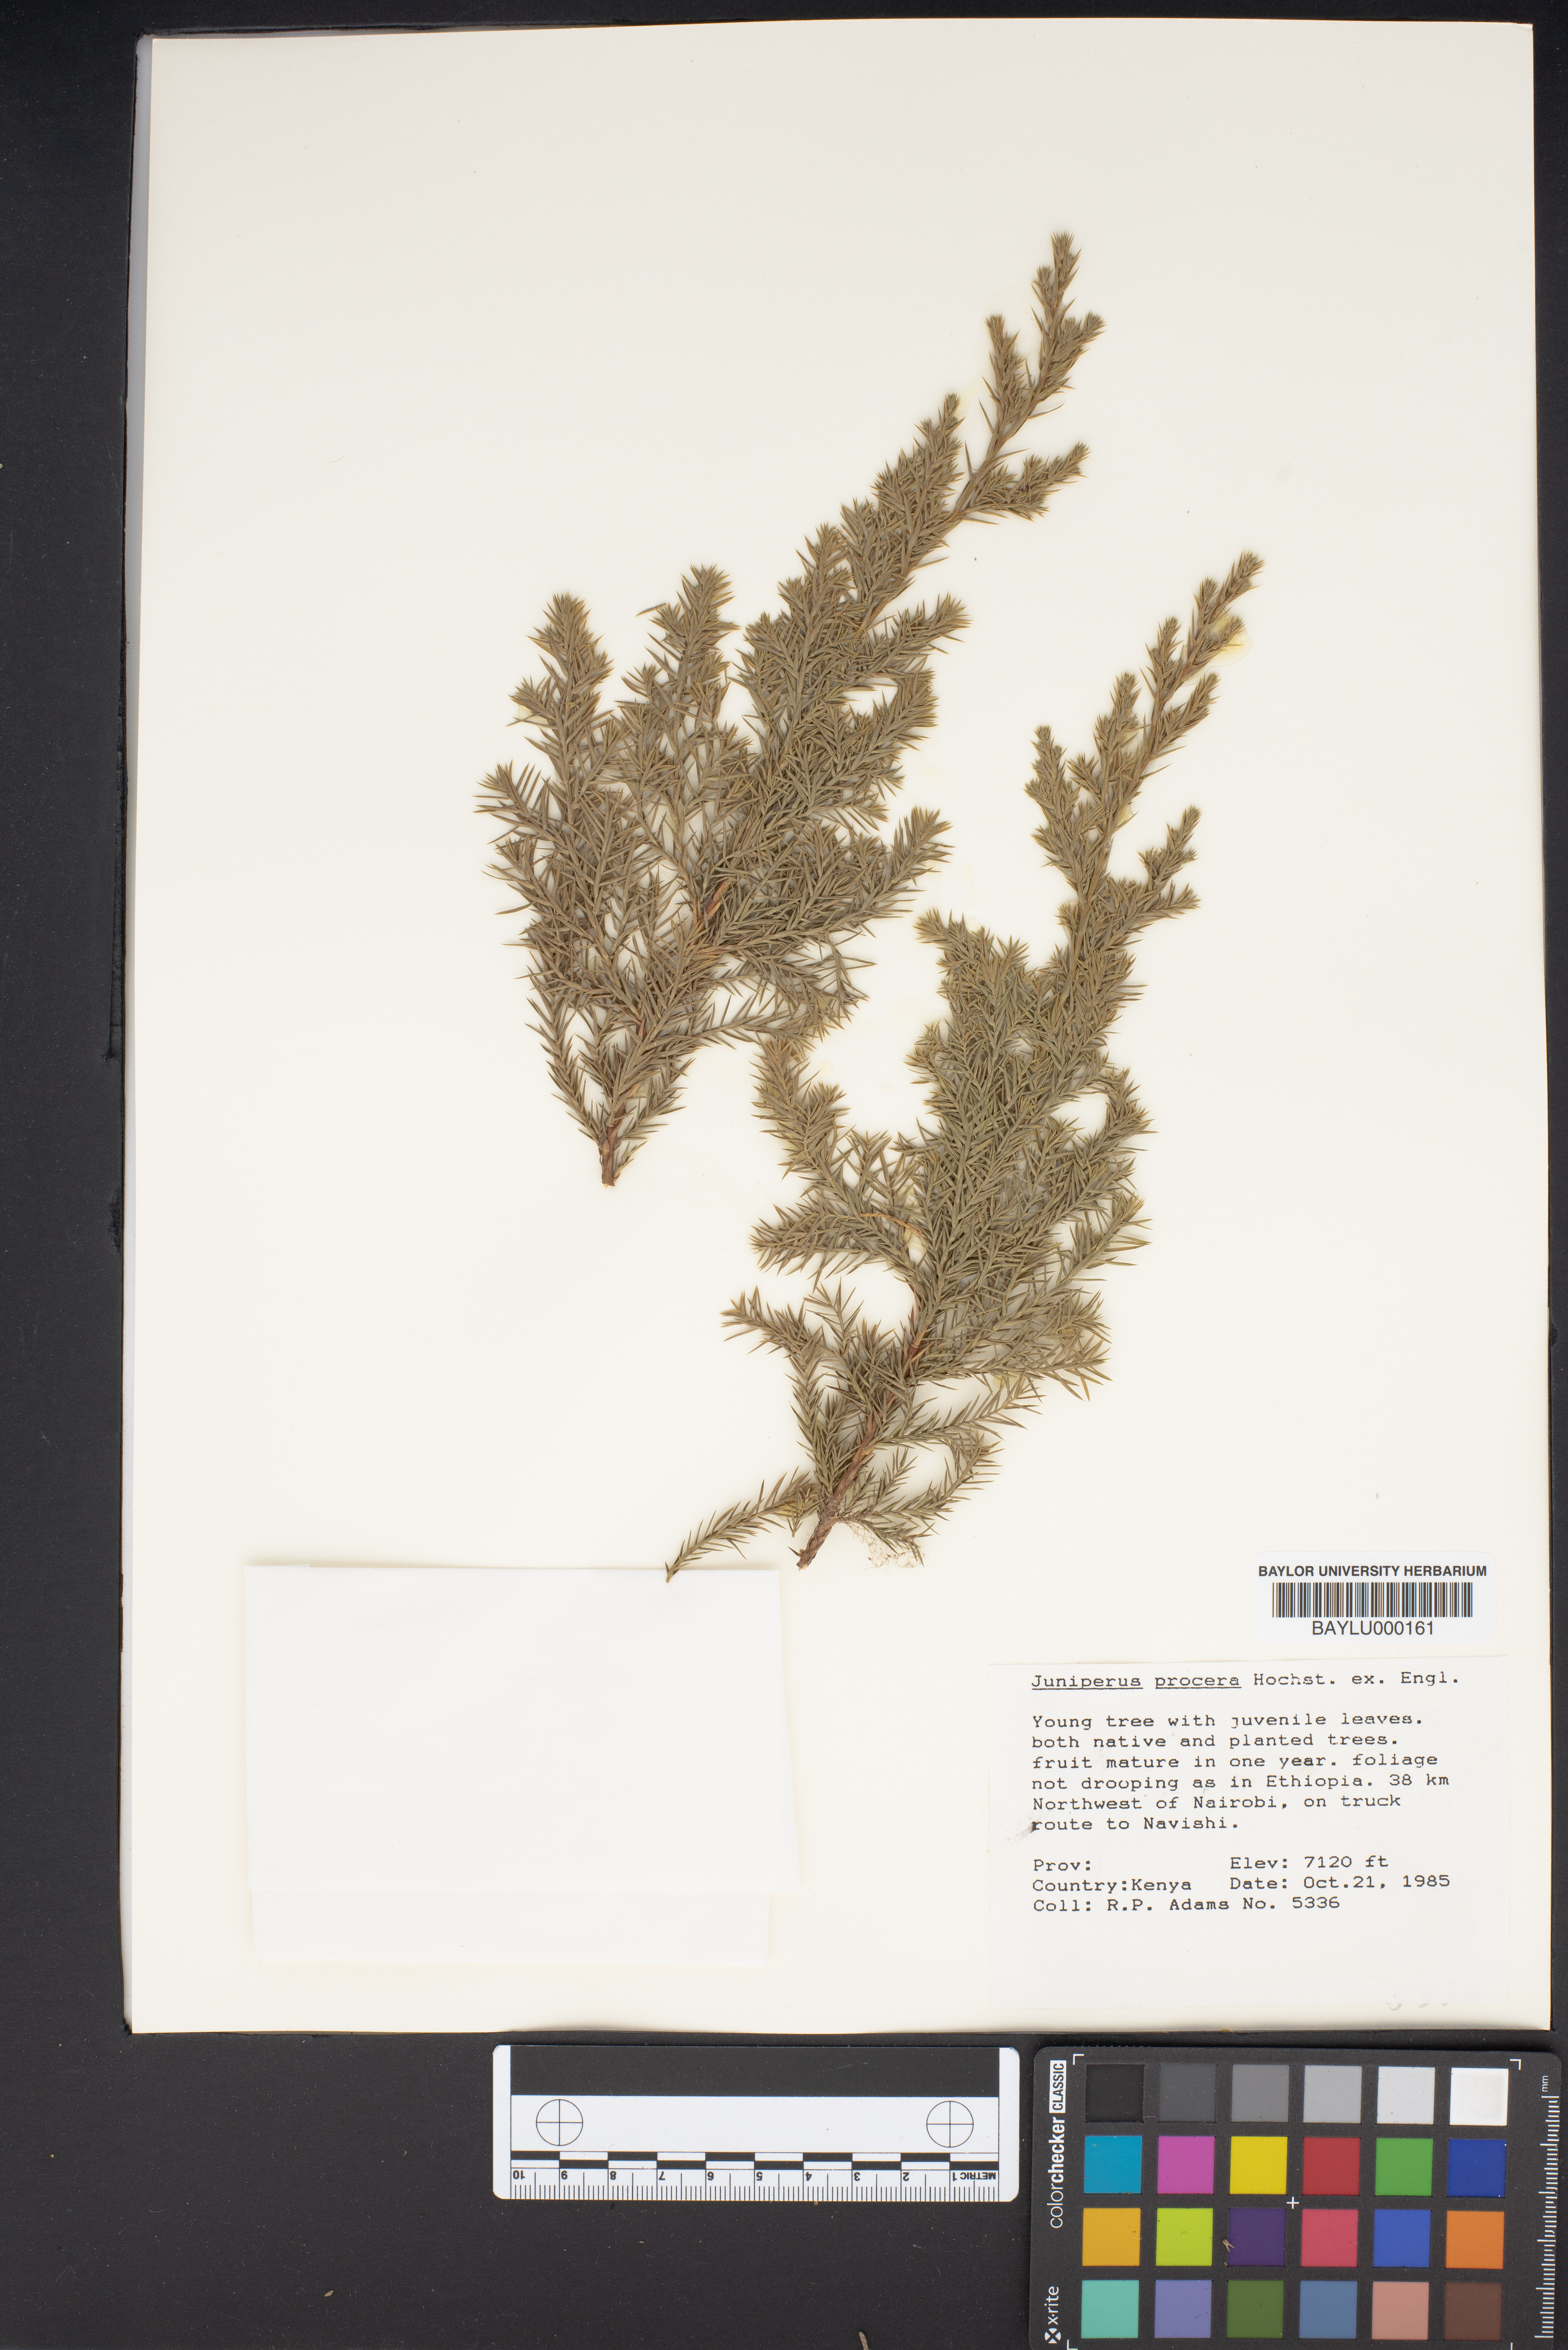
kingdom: Plantae
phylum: Tracheophyta
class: Pinopsida
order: Pinales
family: Cupressaceae
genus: Juniperus
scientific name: Juniperus procera
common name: African juniper
